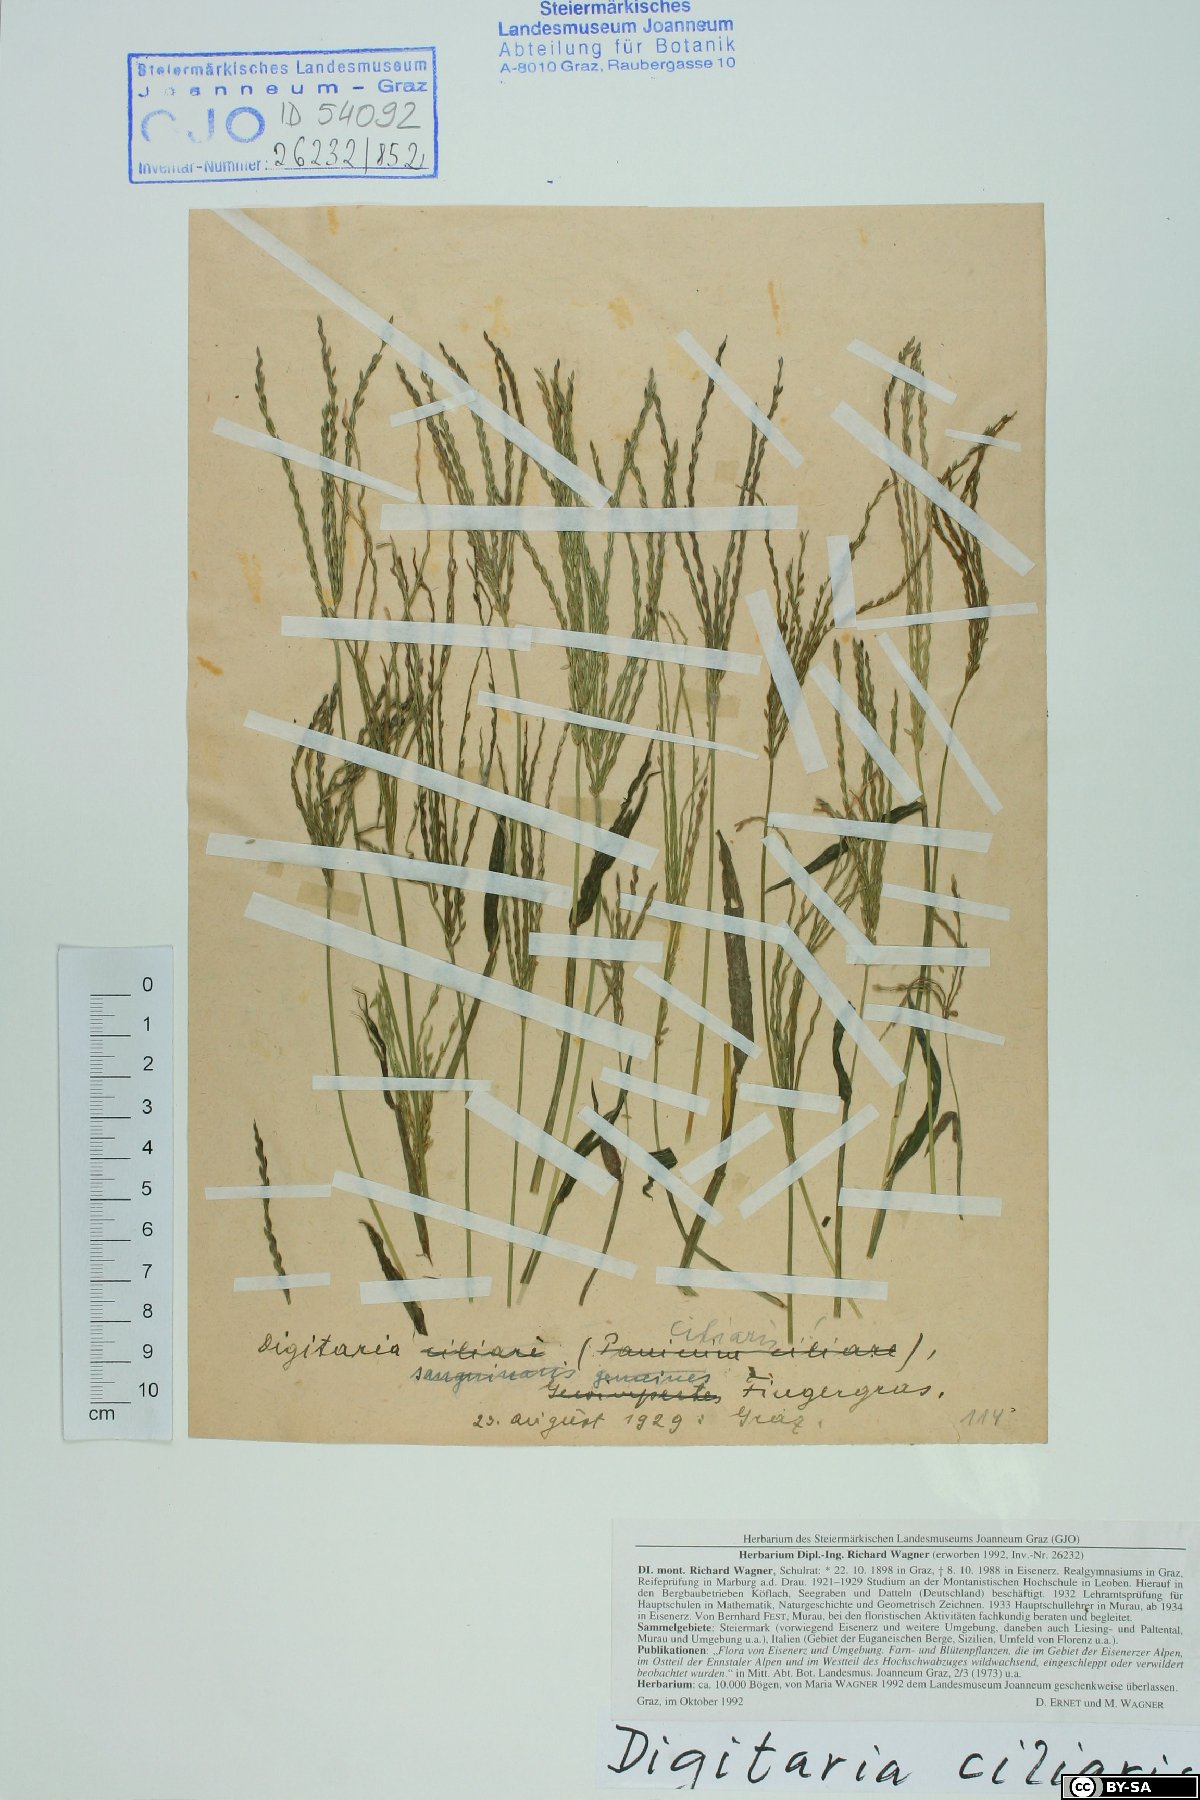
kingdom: Plantae
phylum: Tracheophyta
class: Liliopsida
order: Poales
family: Poaceae
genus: Digitaria
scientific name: Digitaria ciliaris
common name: Tropical finger-grass
